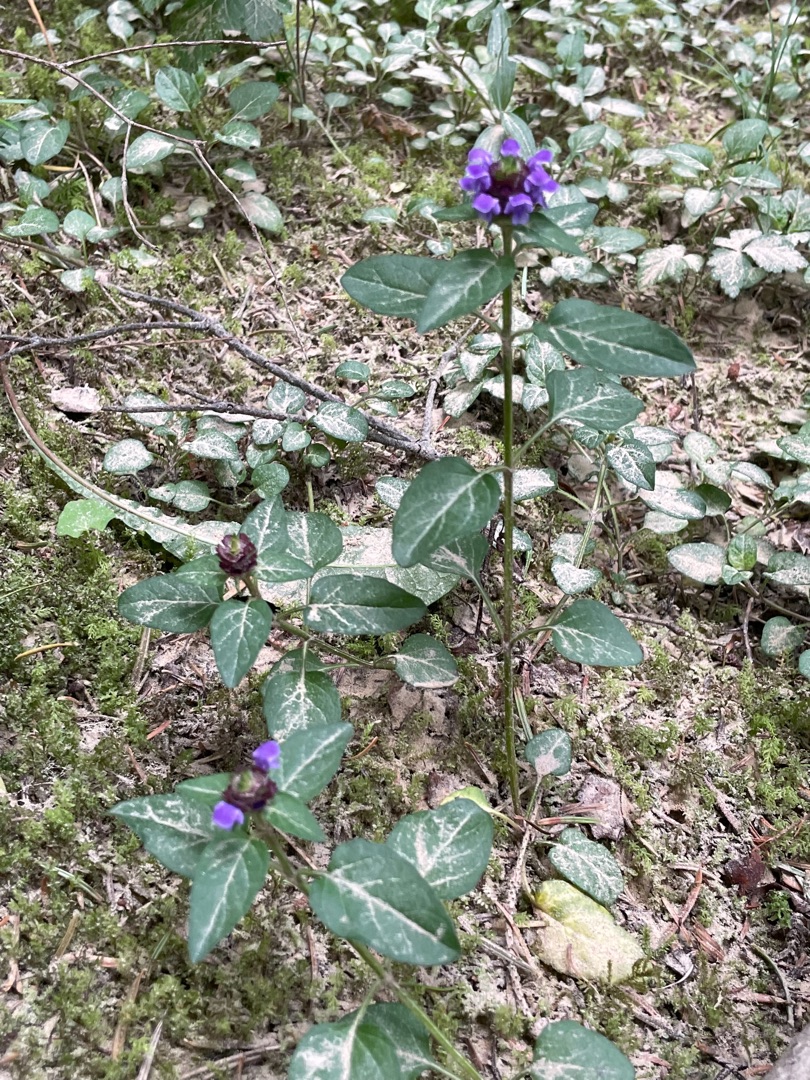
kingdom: Plantae
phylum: Tracheophyta
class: Magnoliopsida
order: Lamiales
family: Lamiaceae
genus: Prunella
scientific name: Prunella vulgaris
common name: Almindelig brunelle
